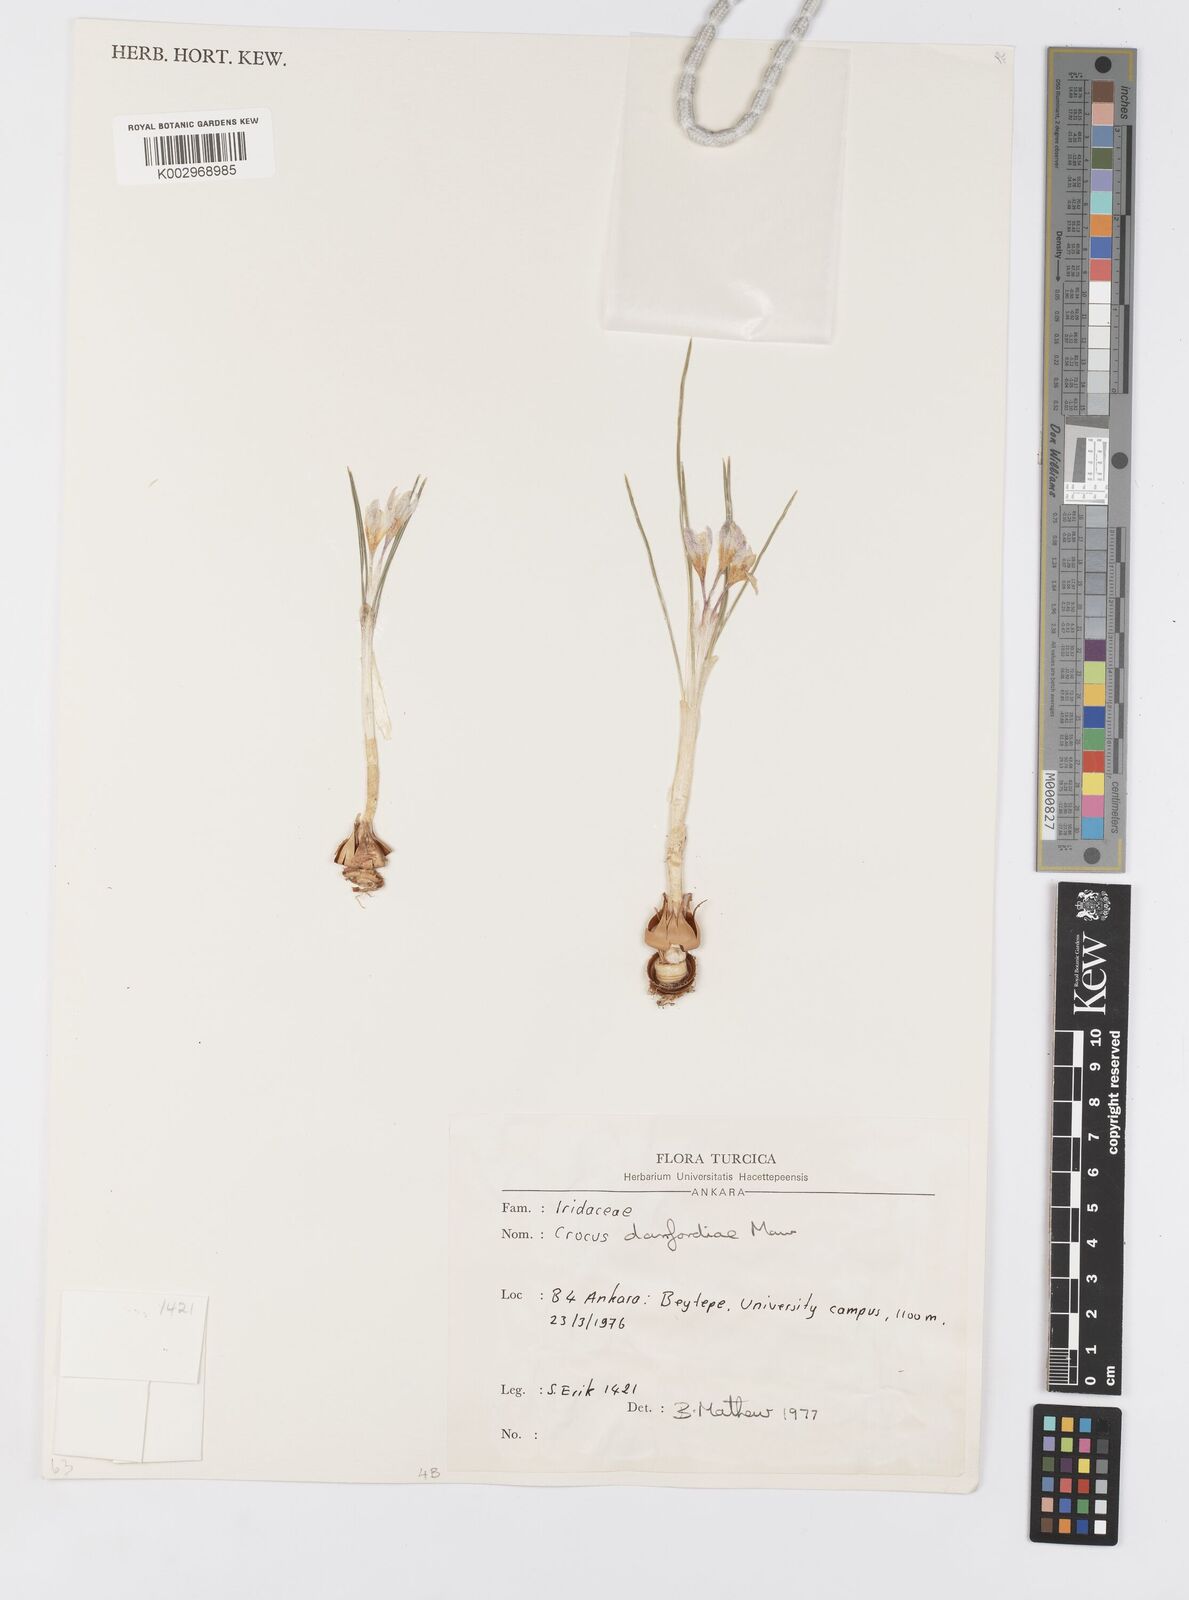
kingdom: Plantae
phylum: Tracheophyta
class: Liliopsida
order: Asparagales
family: Iridaceae
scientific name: Iridaceae
